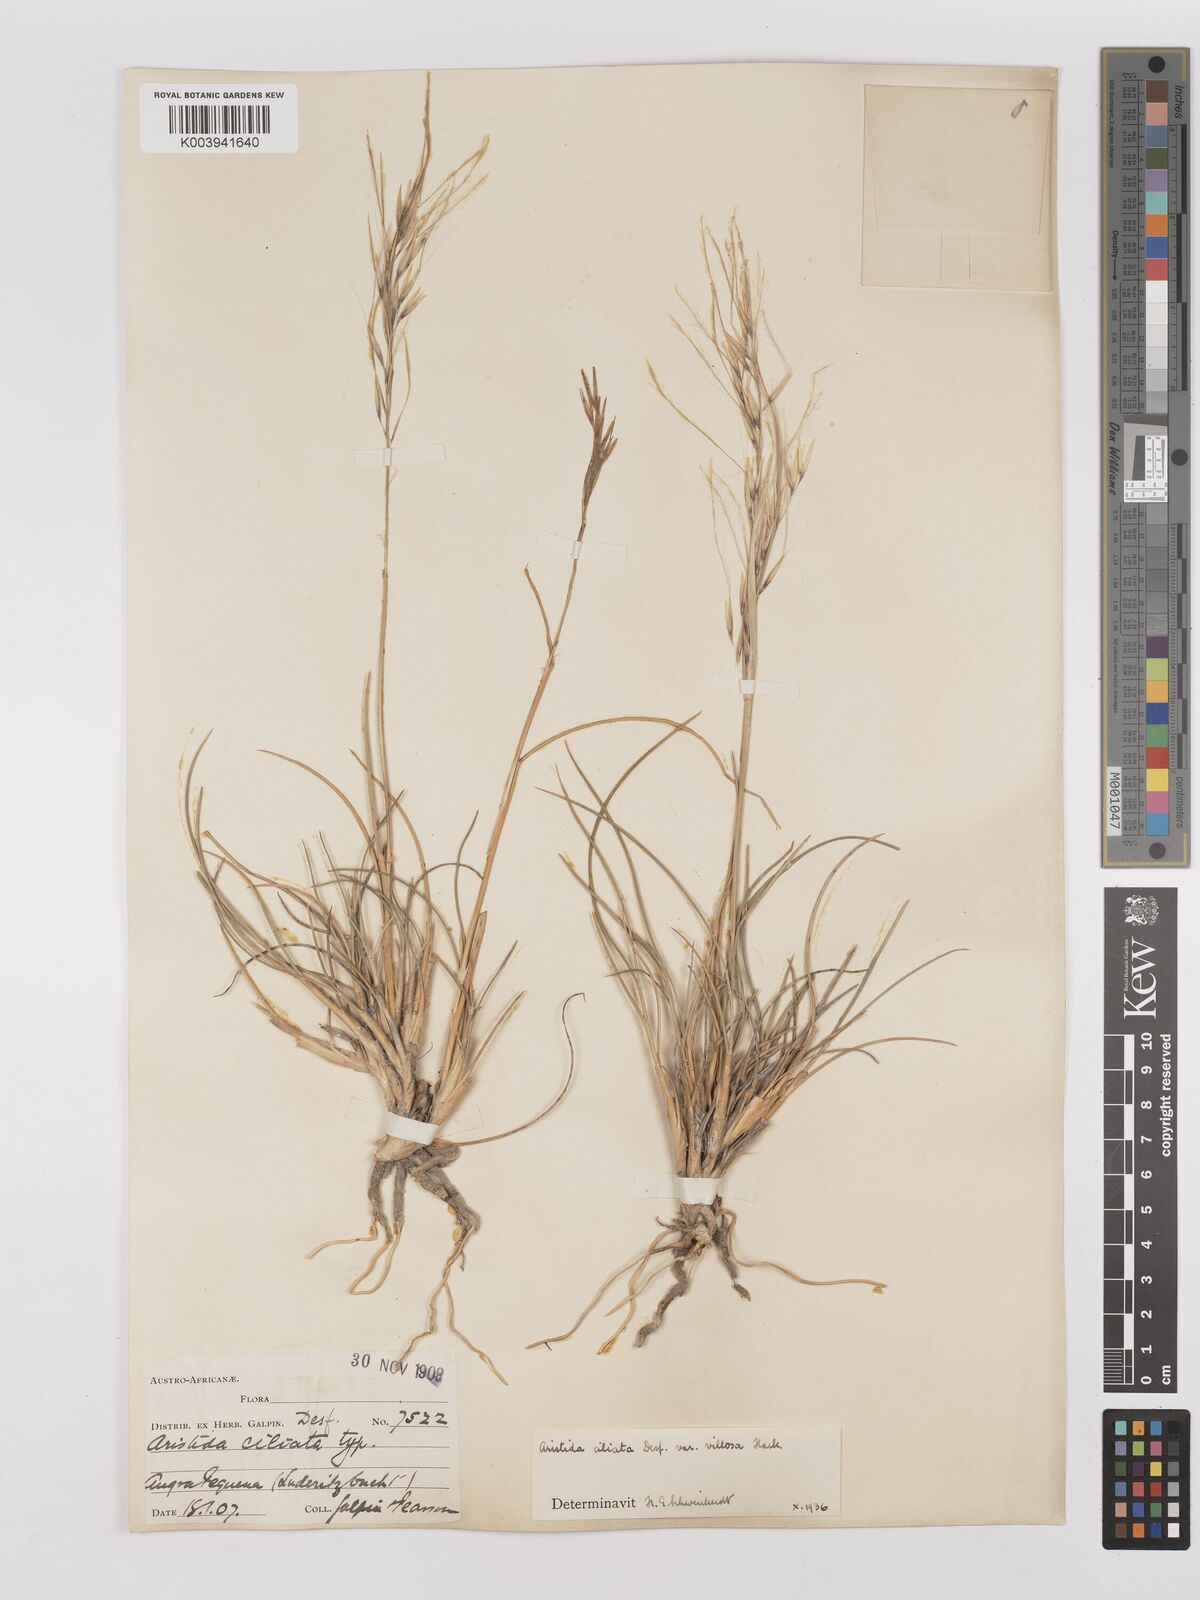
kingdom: Plantae
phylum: Tracheophyta
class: Liliopsida
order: Poales
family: Poaceae
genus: Stipagrostis
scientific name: Stipagrostis ciliata
